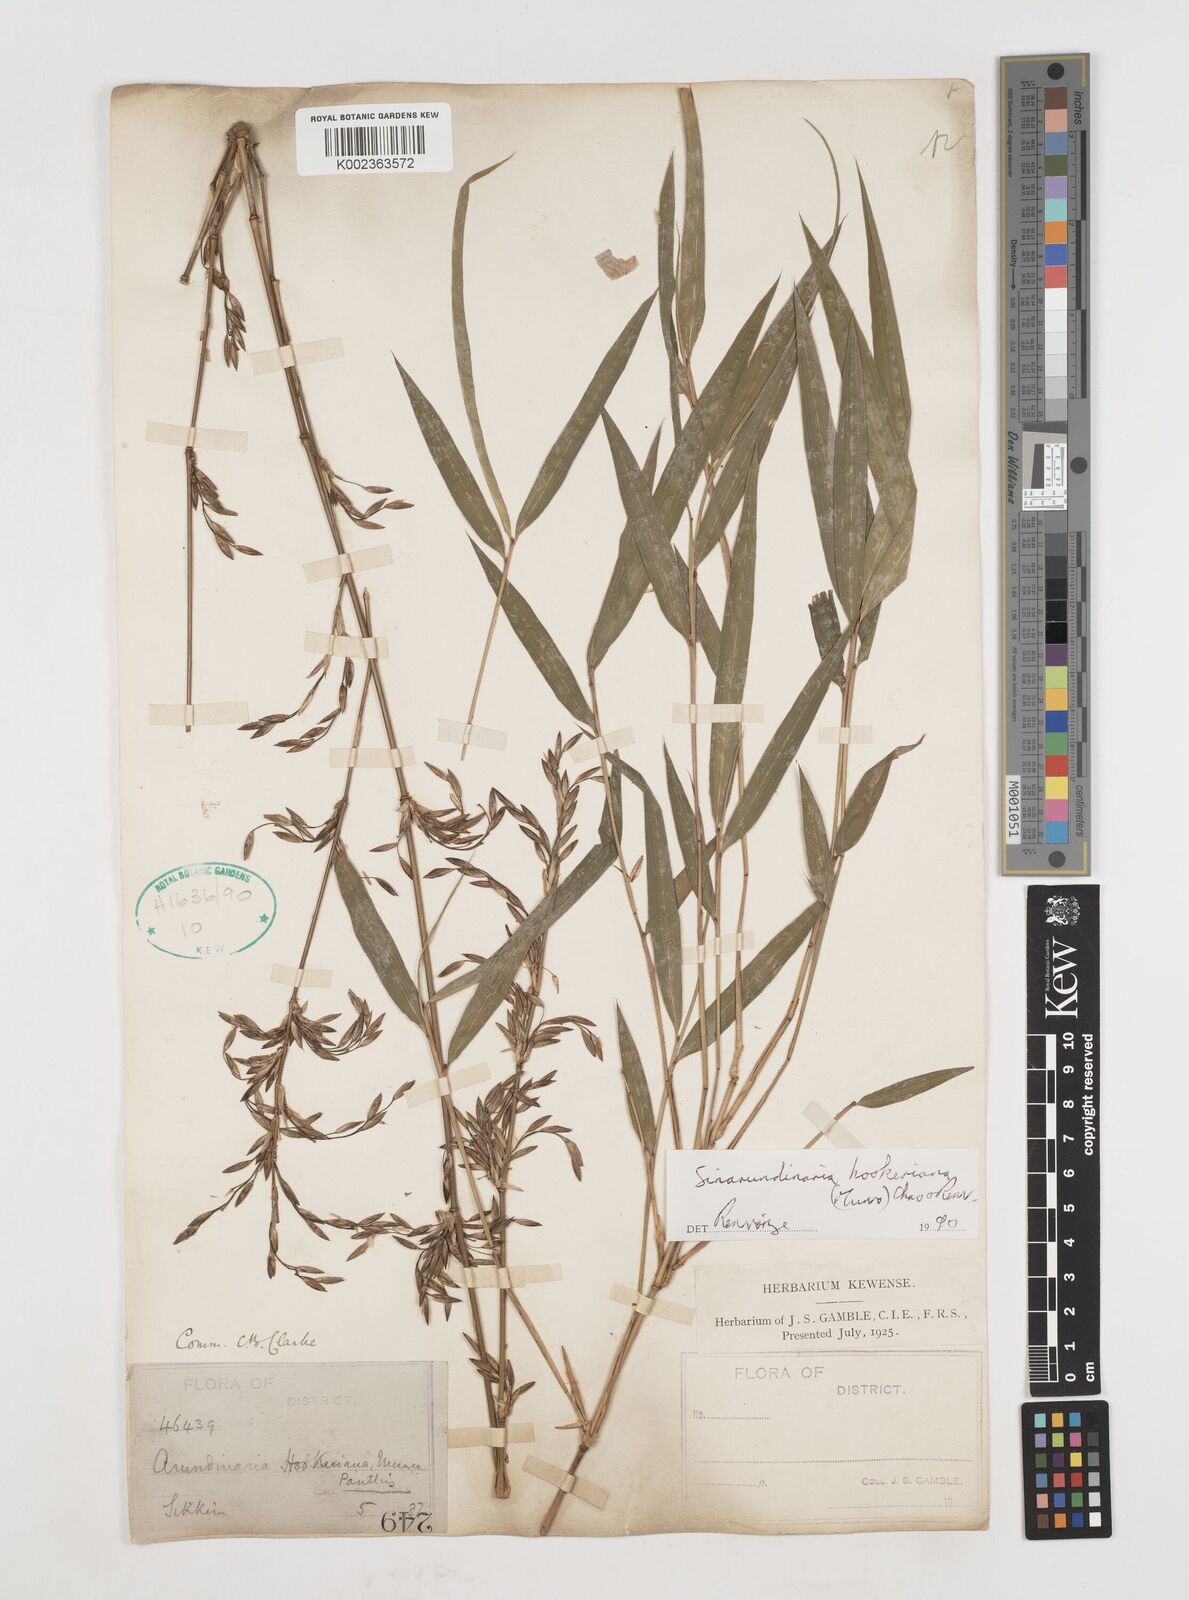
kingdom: Plantae
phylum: Tracheophyta
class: Liliopsida
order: Poales
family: Poaceae
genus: Himalayacalamus
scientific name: Himalayacalamus hookerianus
